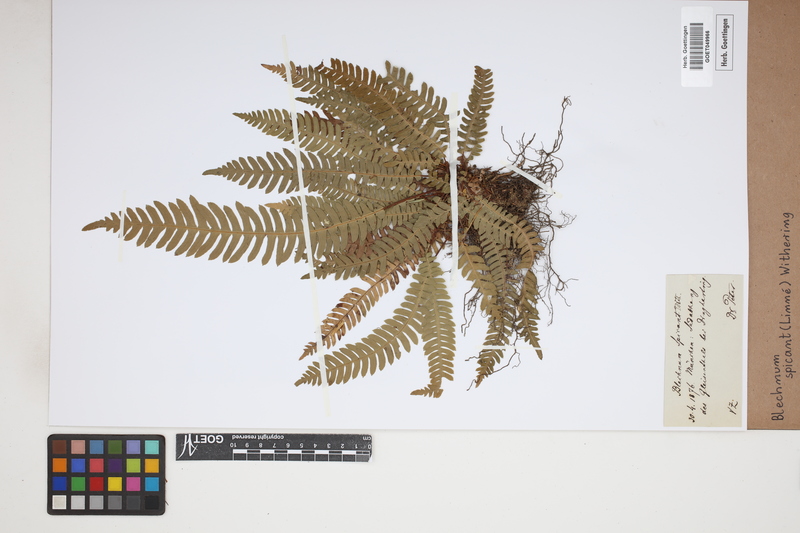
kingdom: Plantae
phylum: Tracheophyta
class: Polypodiopsida
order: Polypodiales
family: Blechnaceae
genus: Struthiopteris
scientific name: Struthiopteris spicant
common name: Deer fern
